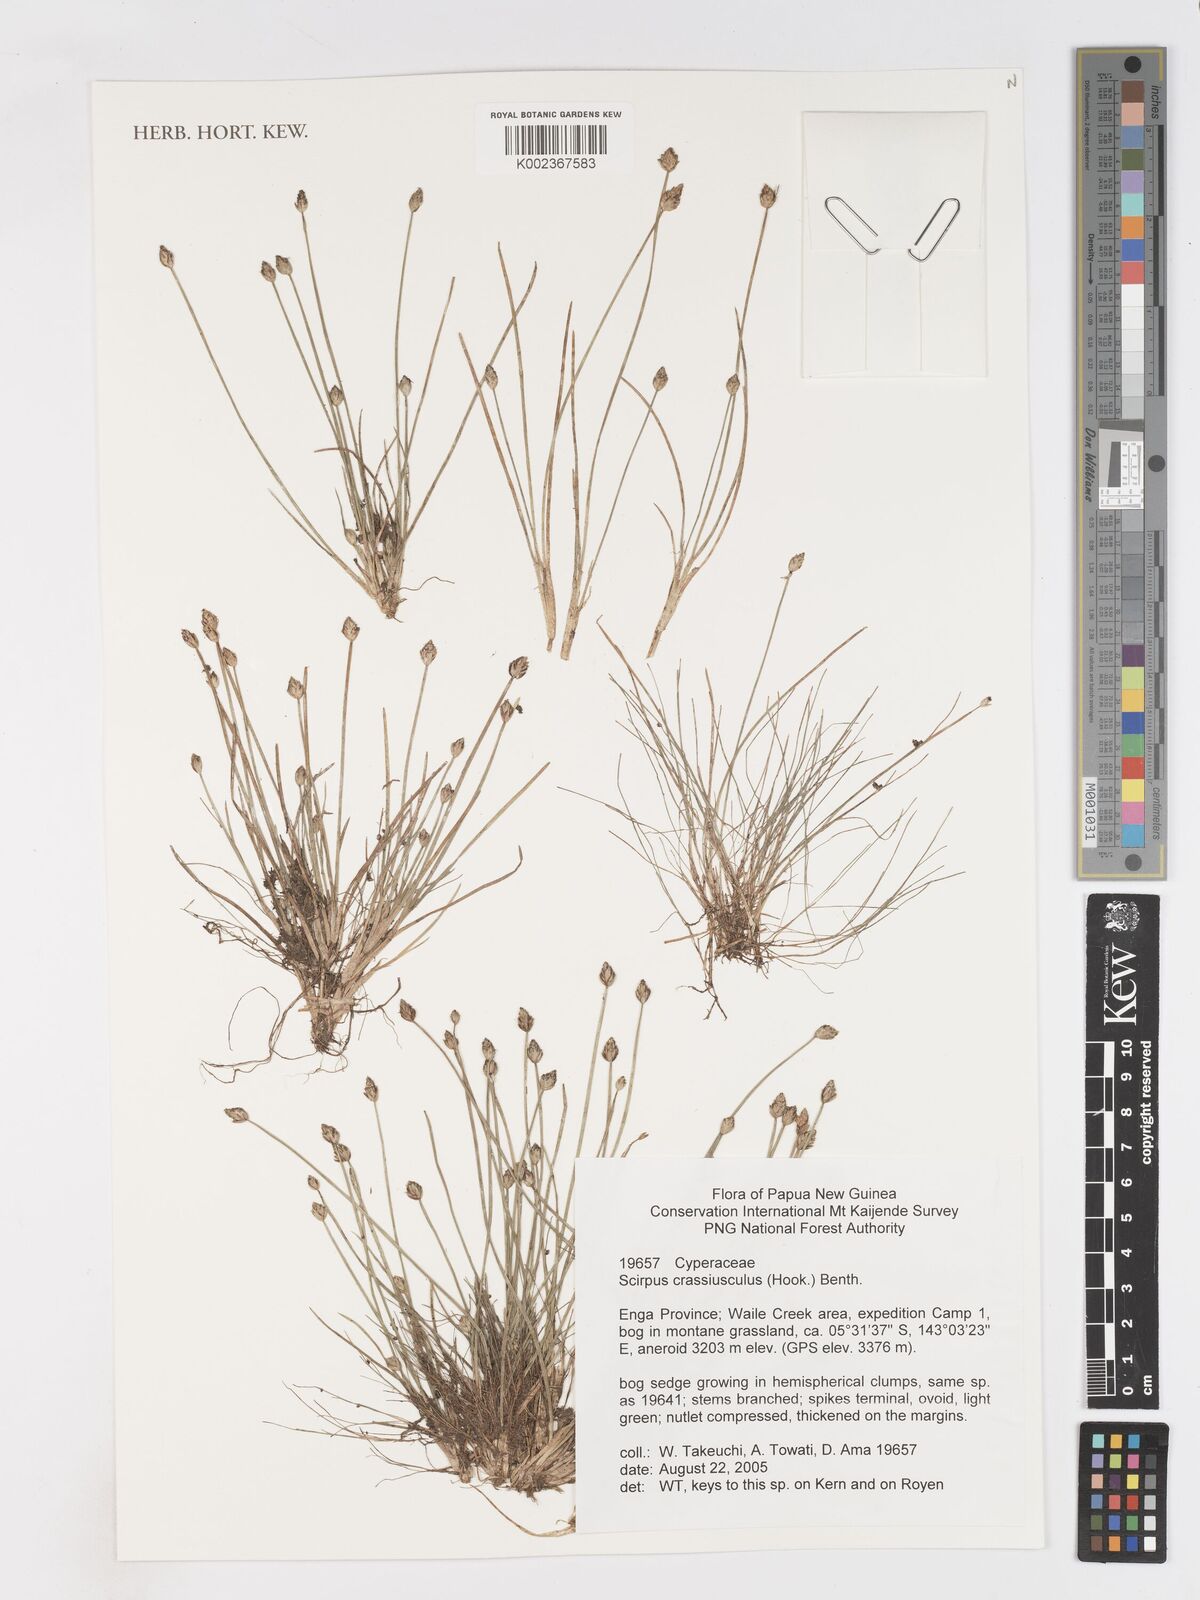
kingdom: Plantae
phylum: Tracheophyta
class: Liliopsida
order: Poales
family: Cyperaceae
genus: Isolepis
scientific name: Isolepis crassiuscula
